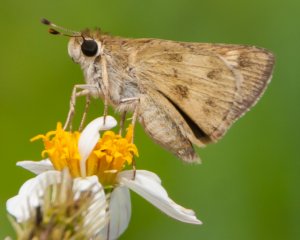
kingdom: Animalia
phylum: Arthropoda
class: Insecta
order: Lepidoptera
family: Hesperiidae
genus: Polites
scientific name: Polites vibex
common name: Whirlabout
